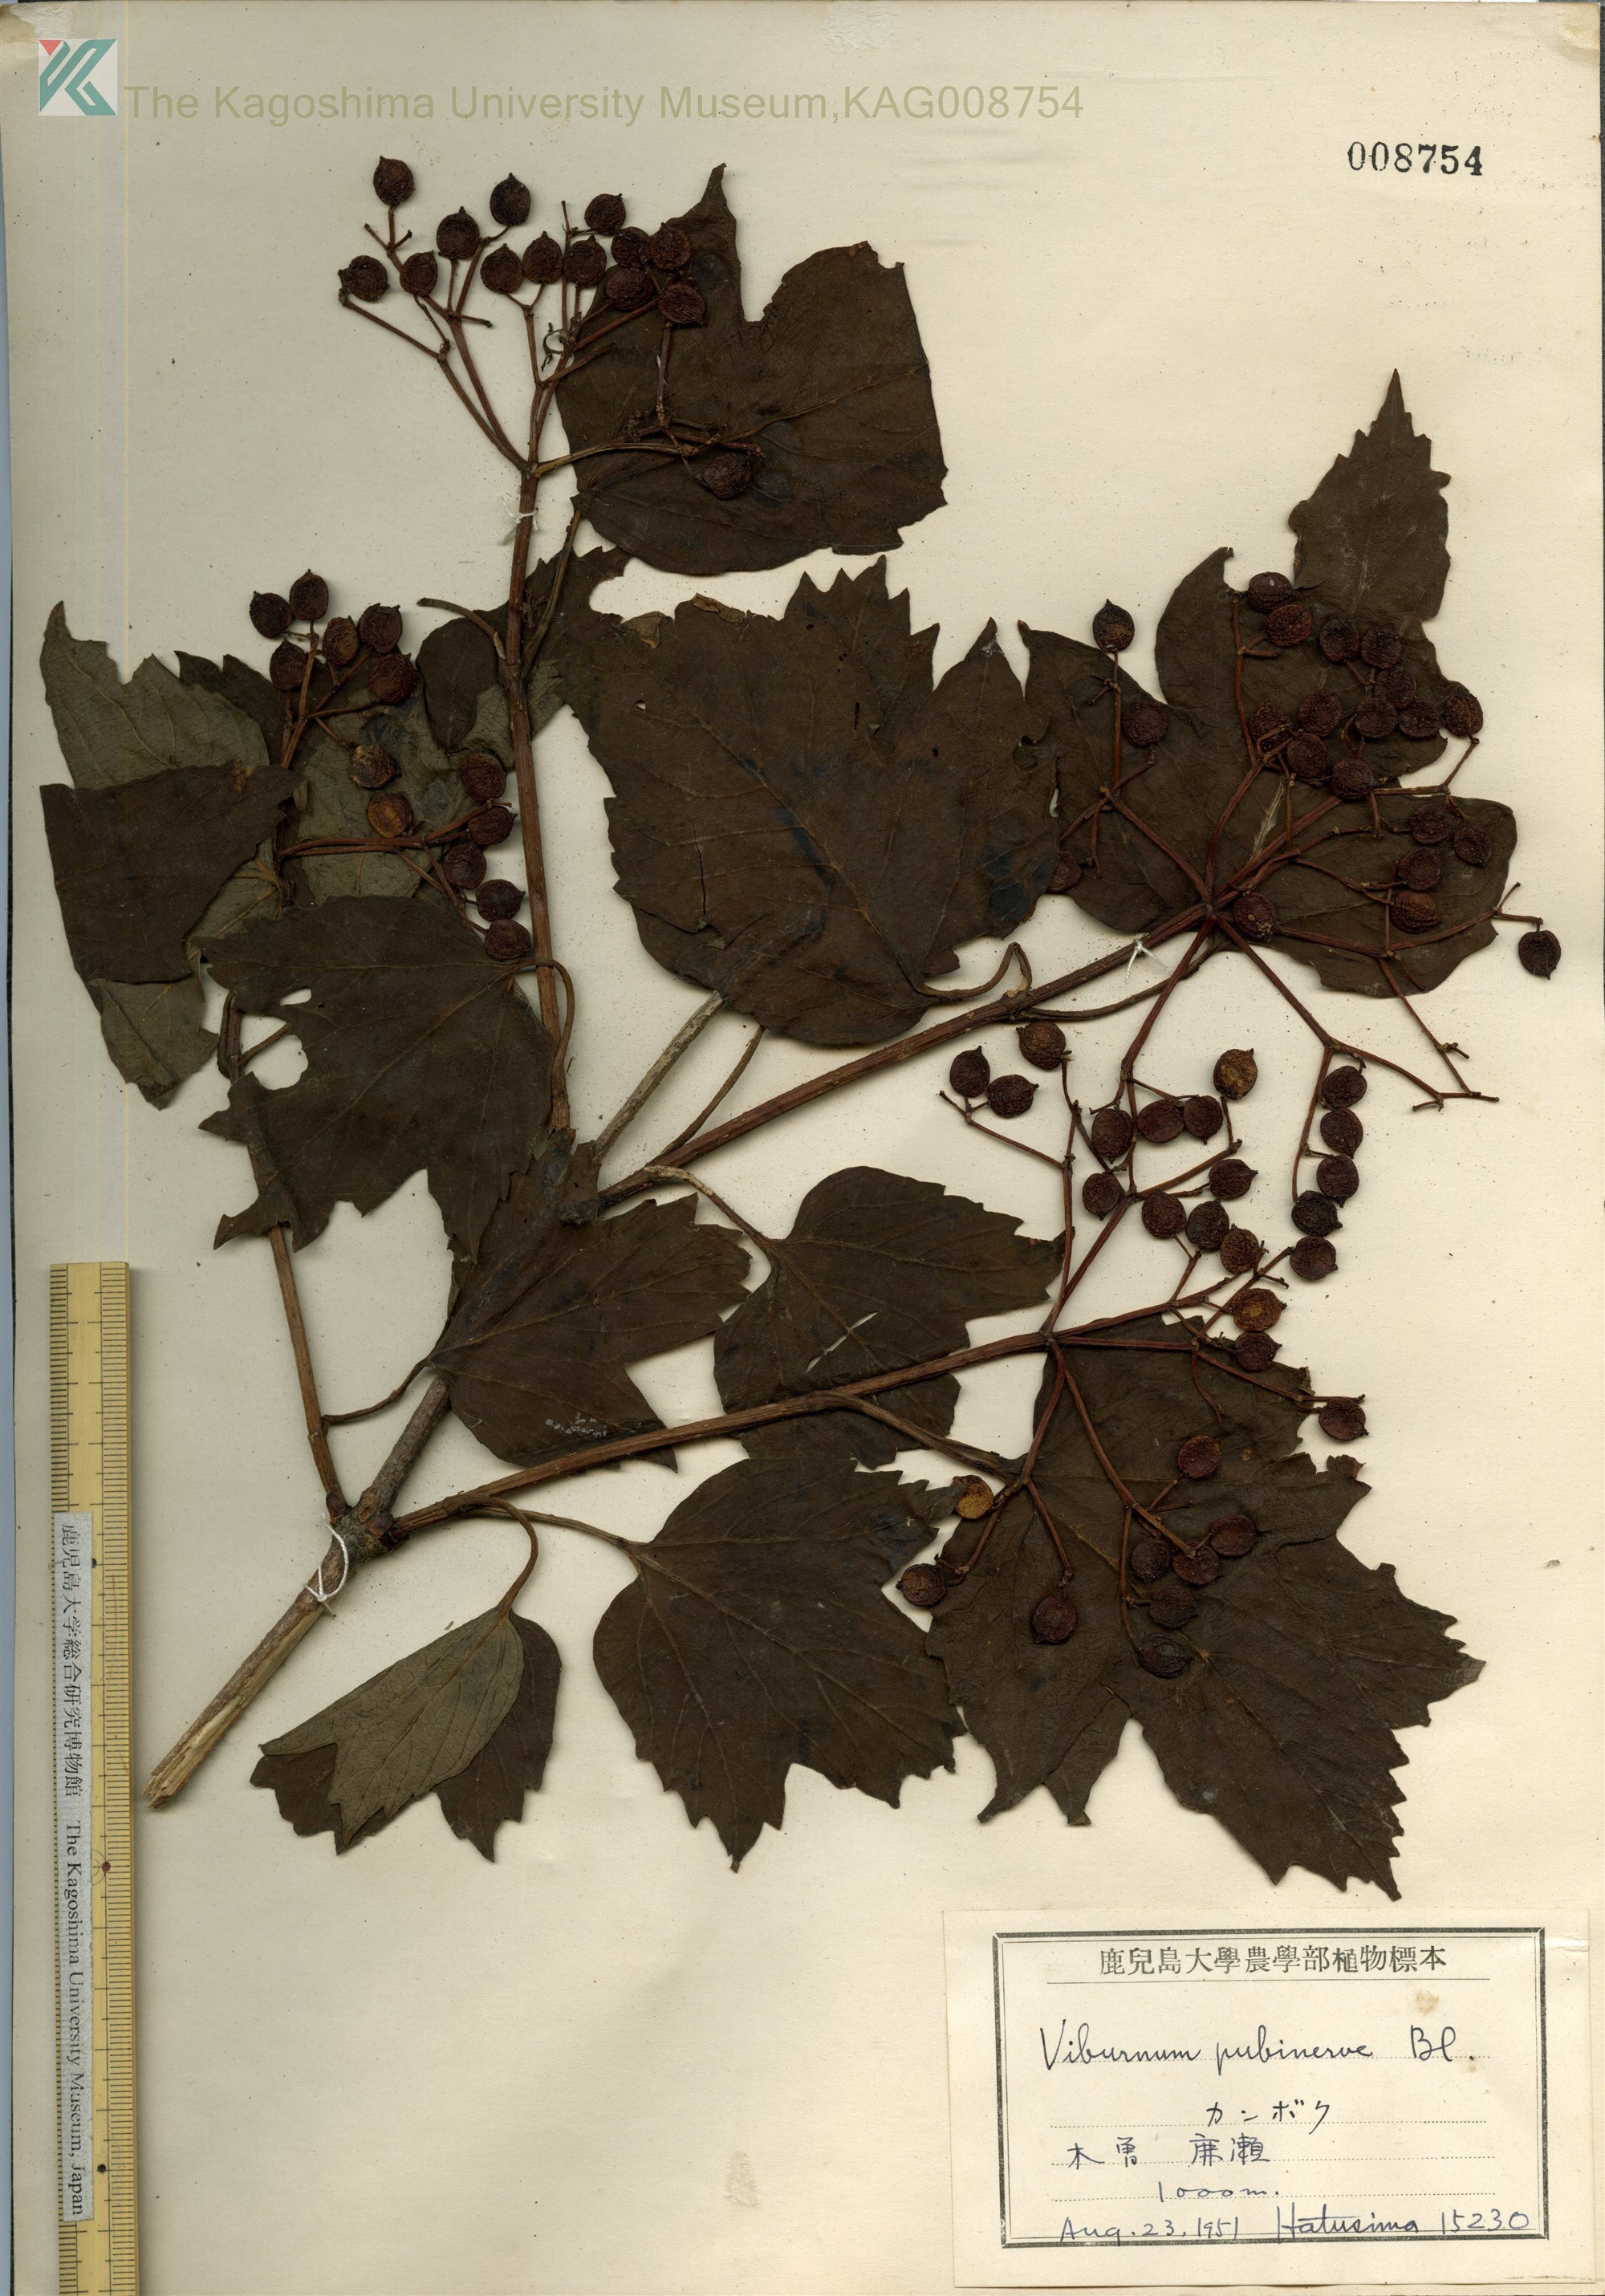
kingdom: Plantae
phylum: Tracheophyta
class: Magnoliopsida
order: Dipsacales
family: Viburnaceae
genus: Viburnum
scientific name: Viburnum opulus
